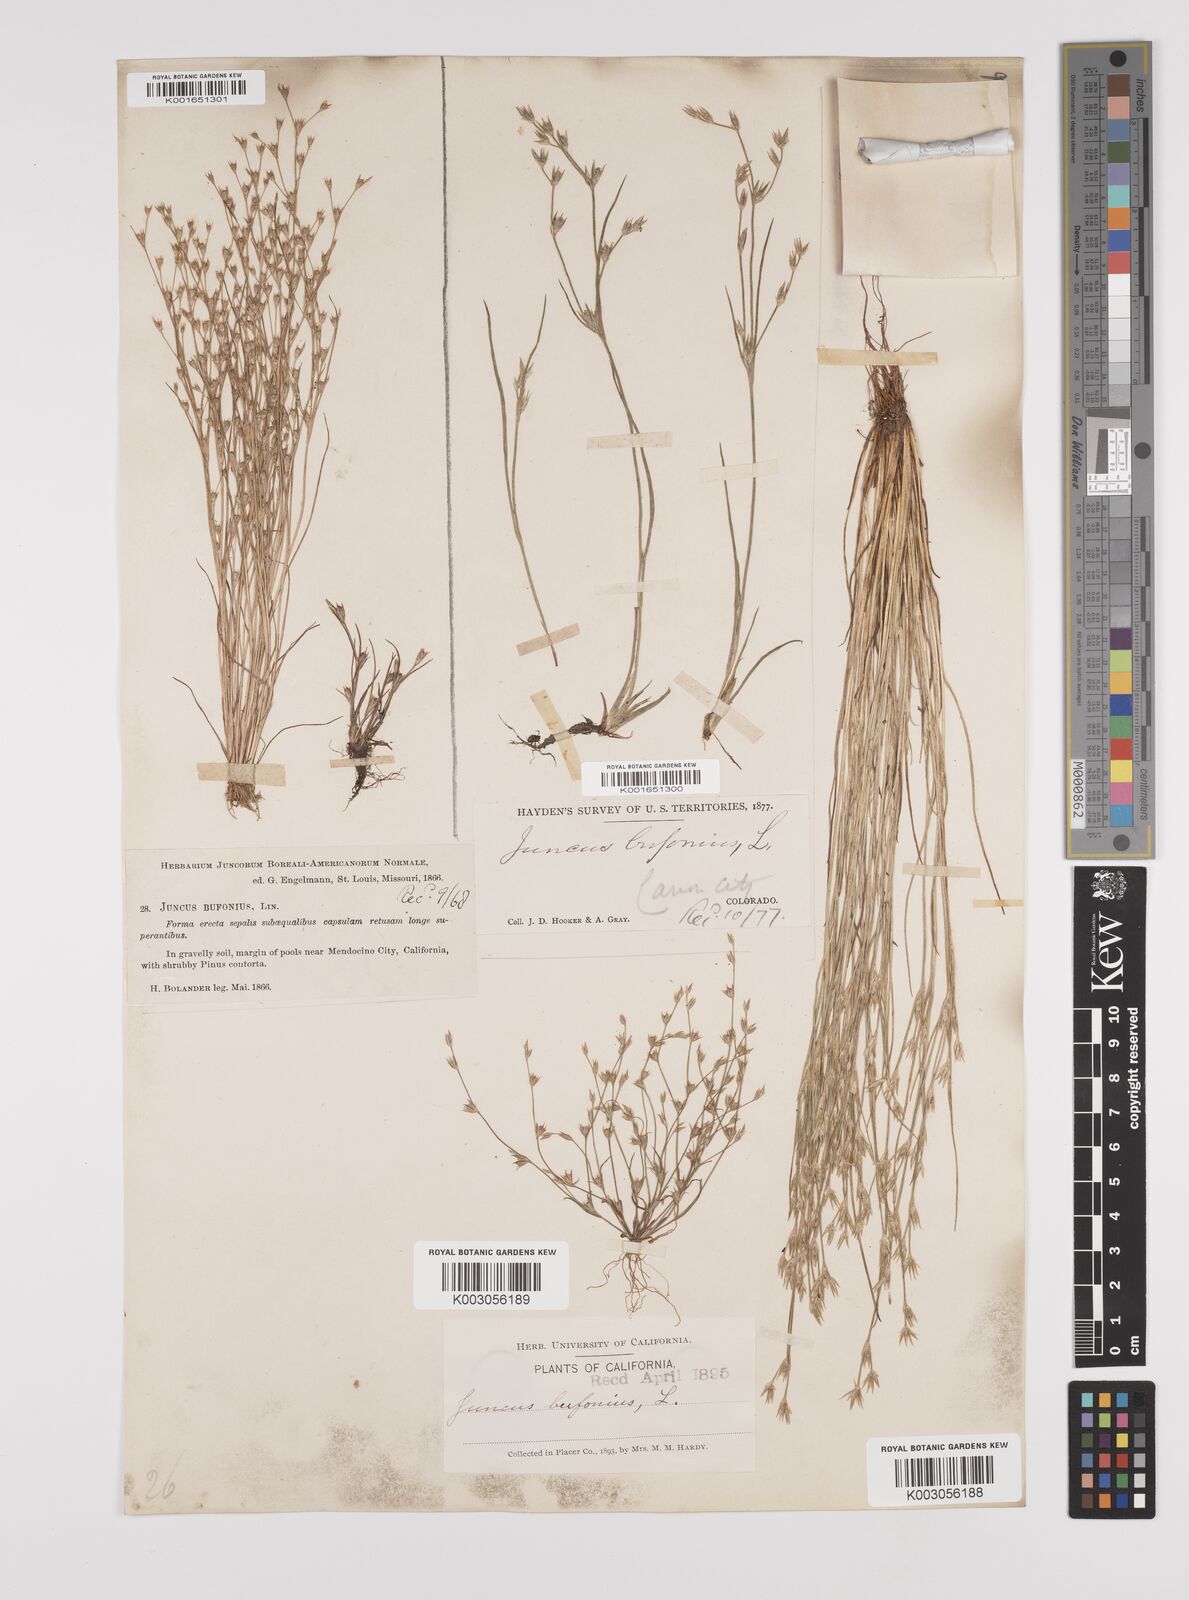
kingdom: Plantae
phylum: Tracheophyta
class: Liliopsida
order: Poales
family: Juncaceae
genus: Juncus
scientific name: Juncus bufonius
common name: Toad rush
